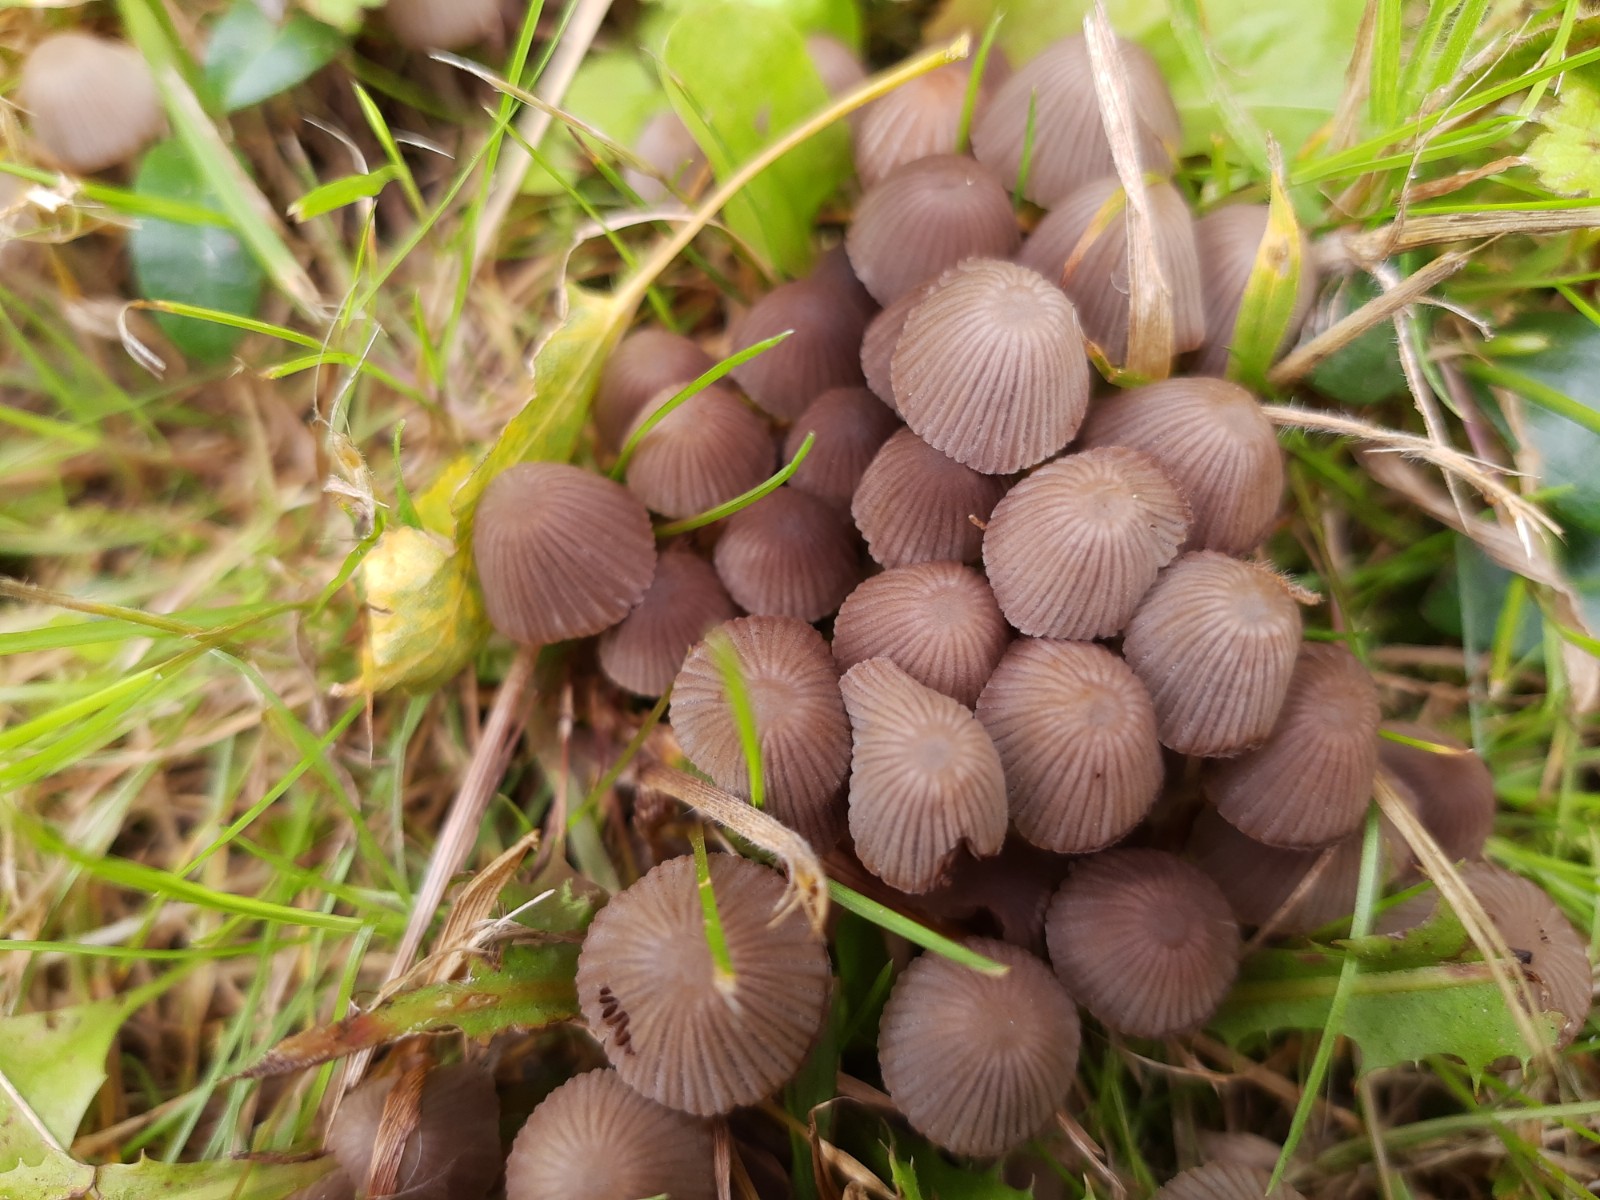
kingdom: Fungi
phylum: Basidiomycota
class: Agaricomycetes
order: Agaricales
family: Psathyrellaceae
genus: Coprinellus
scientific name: Coprinellus disseminatus
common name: bredsået blækhat
